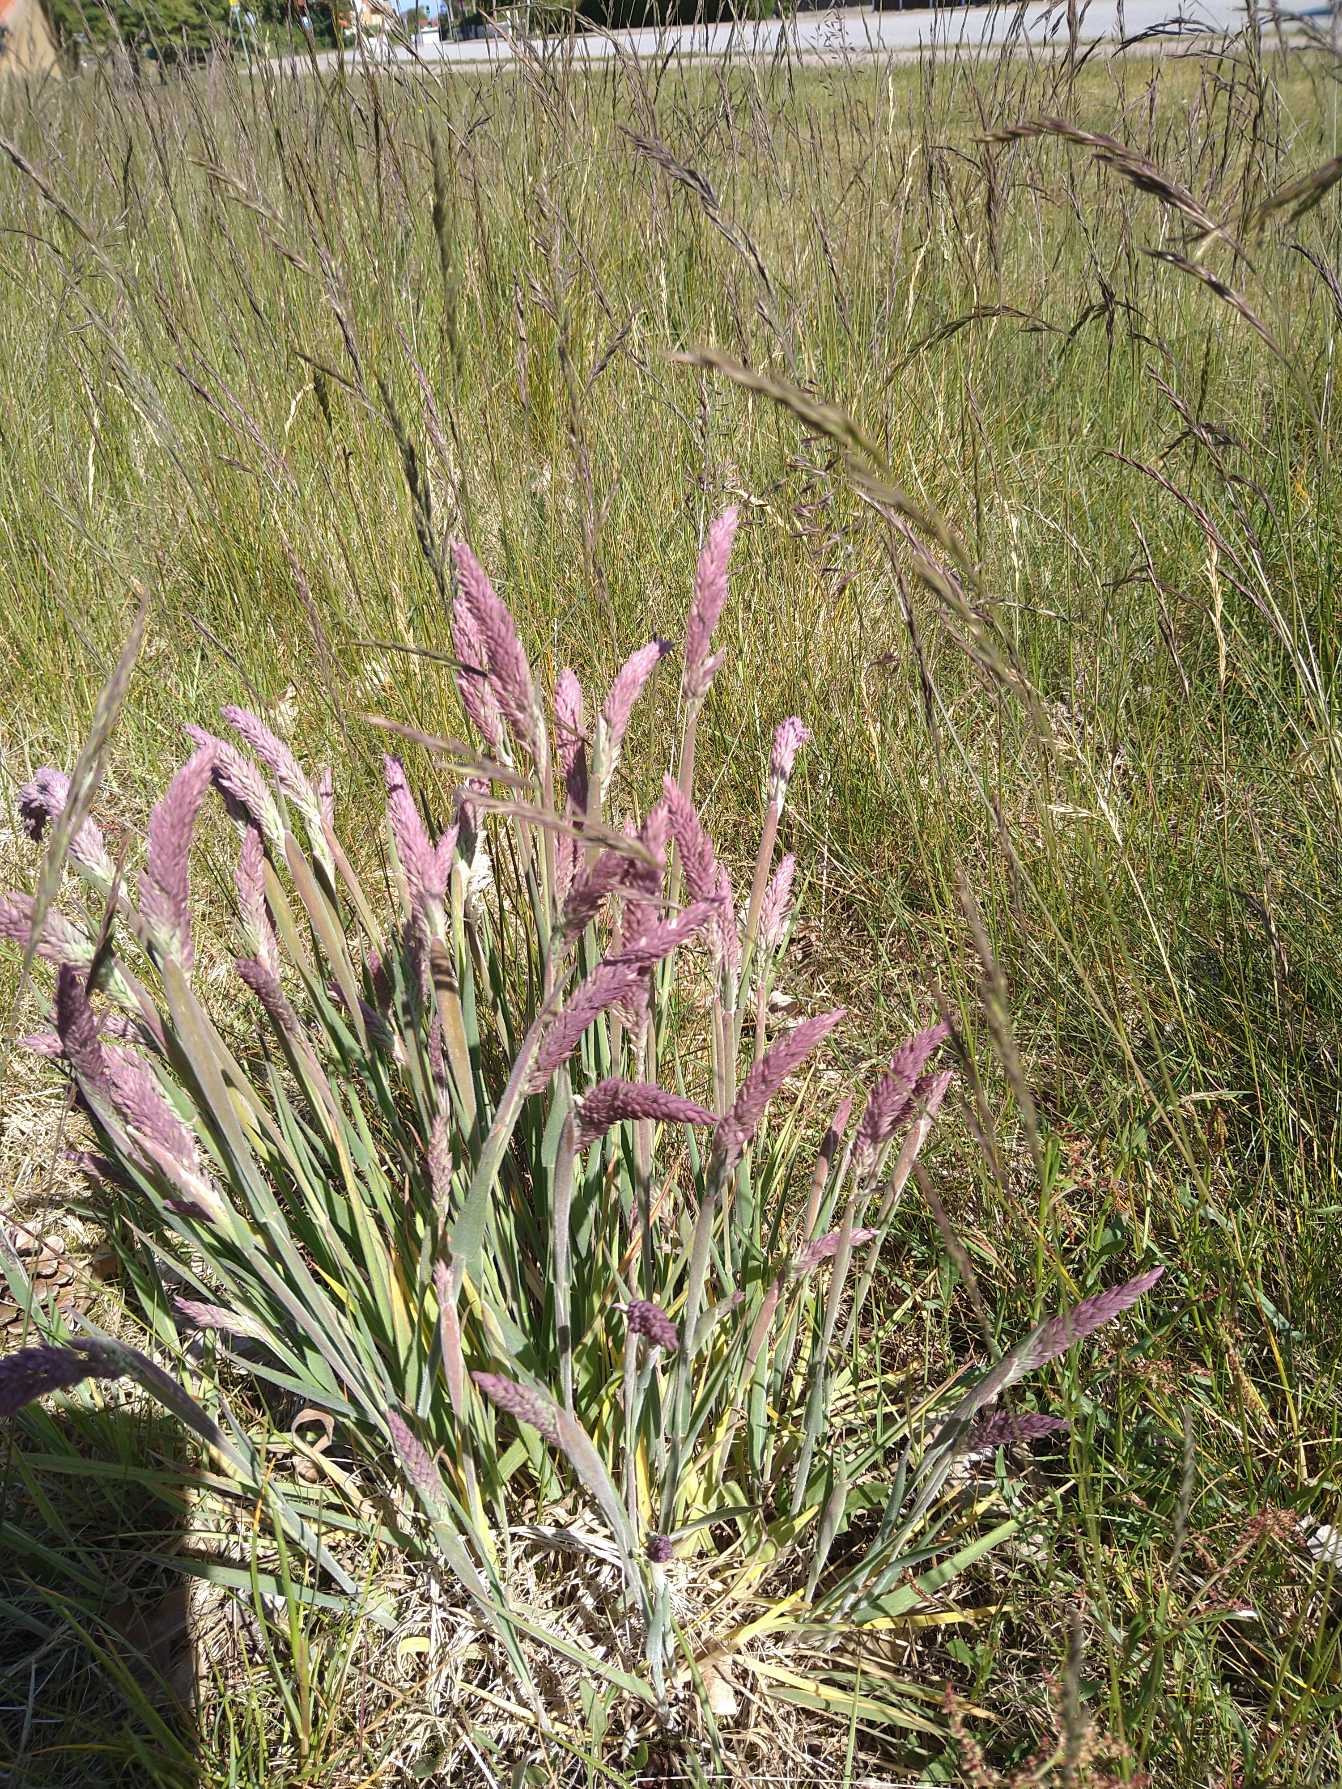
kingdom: Plantae
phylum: Tracheophyta
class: Liliopsida
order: Poales
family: Poaceae
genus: Holcus
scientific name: Holcus lanatus
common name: Fløjlsgræs
